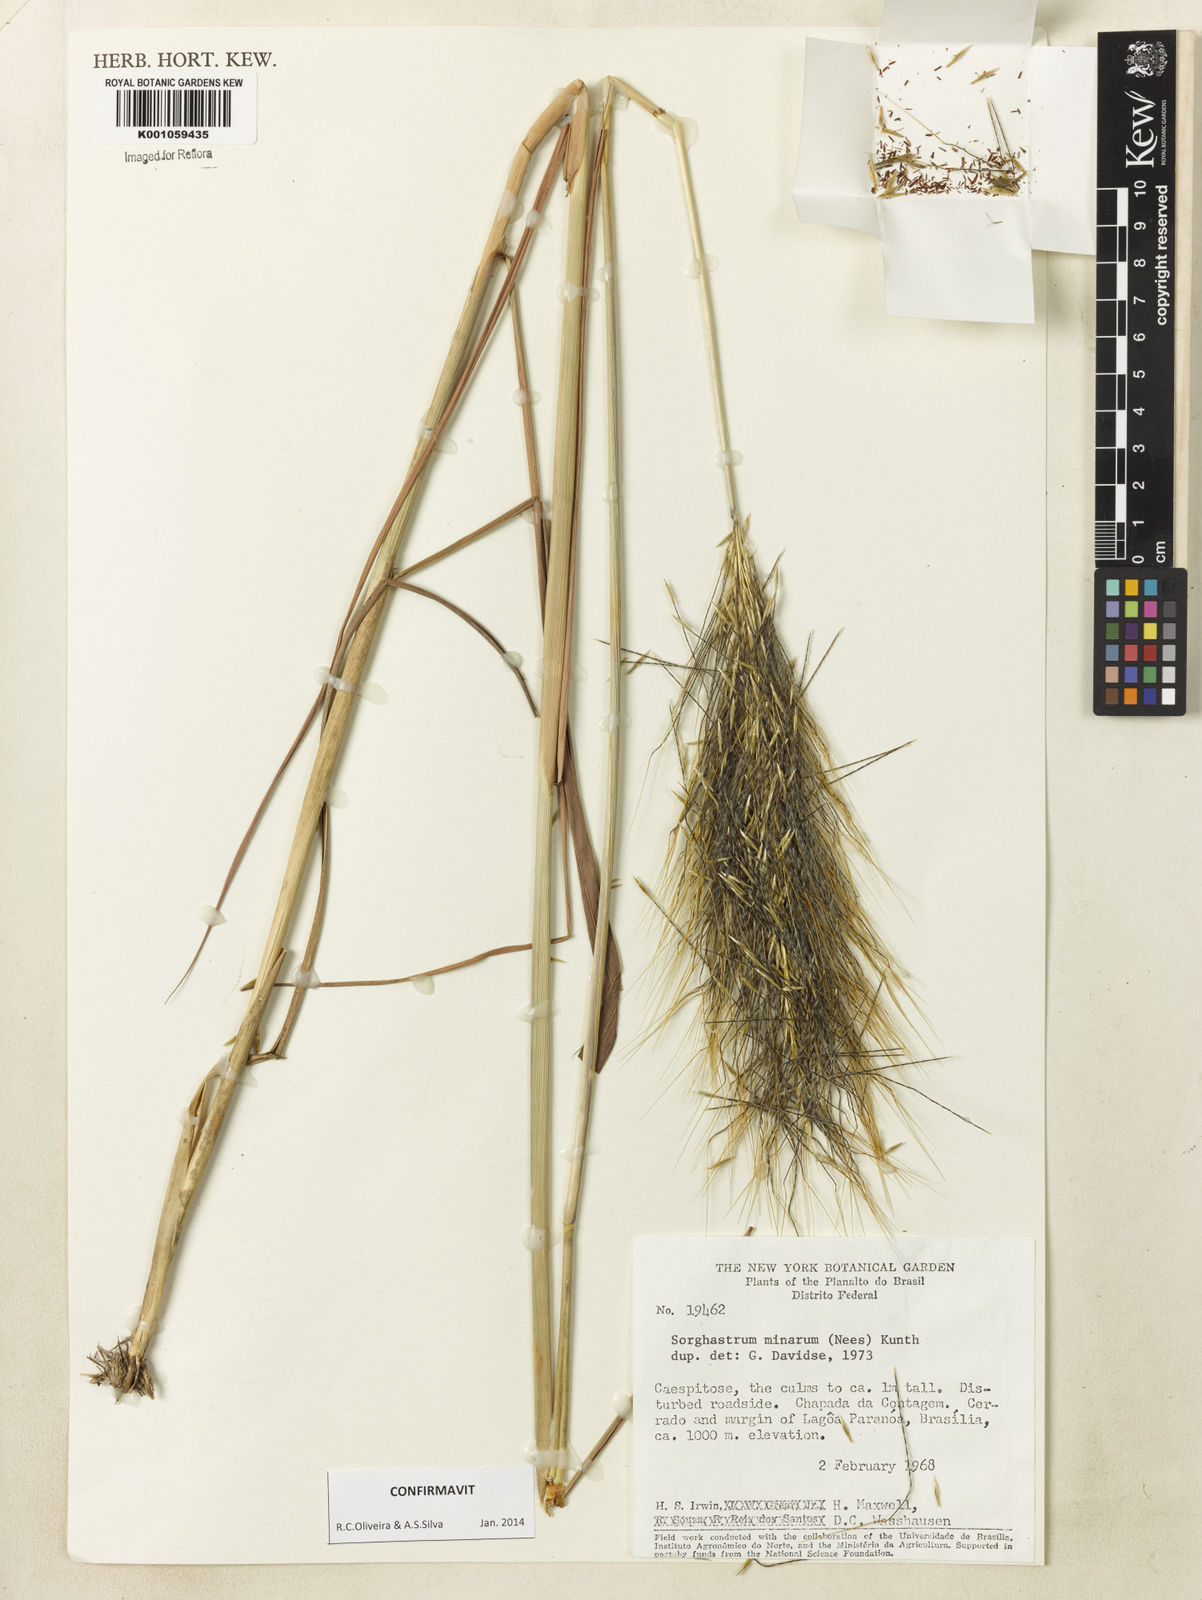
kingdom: Plantae
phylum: Tracheophyta
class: Liliopsida
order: Poales
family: Poaceae
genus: Sorghastrum
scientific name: Sorghastrum minarum
